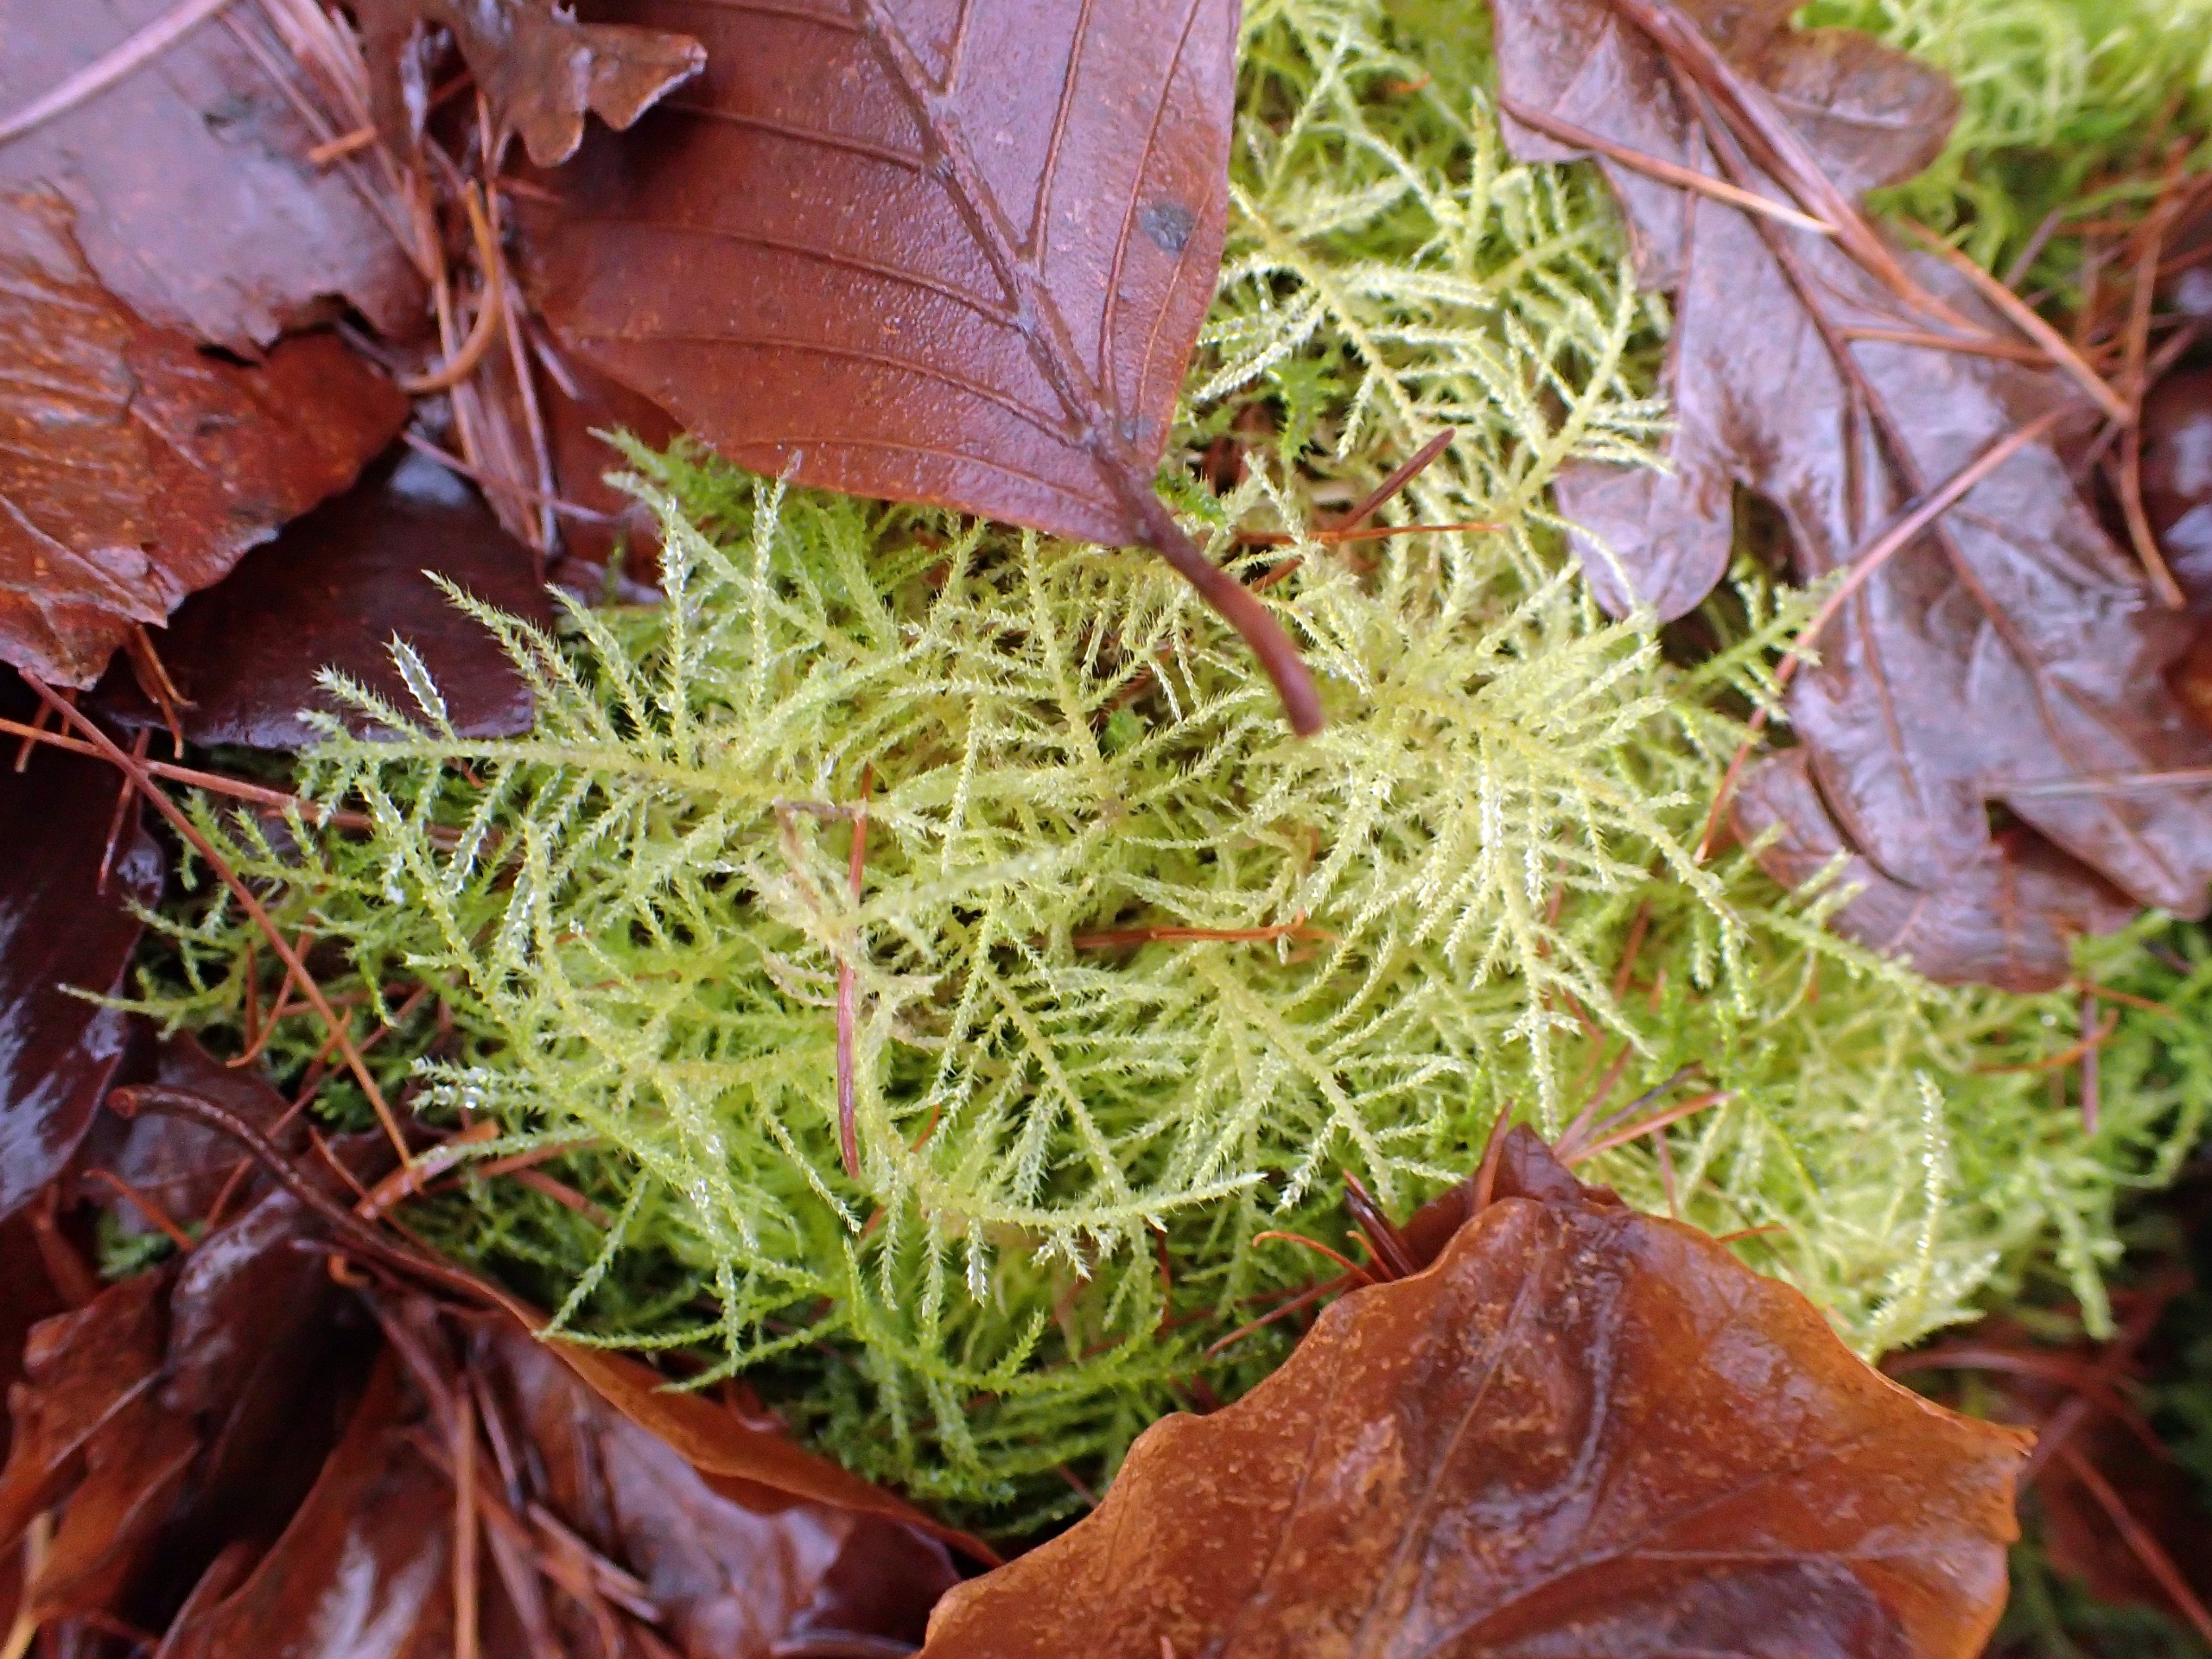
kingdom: Plantae
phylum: Bryophyta
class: Bryopsida
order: Hypnales
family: Brachytheciaceae
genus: Kindbergia
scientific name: Kindbergia praelonga
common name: Forskelligbladet vortetand
